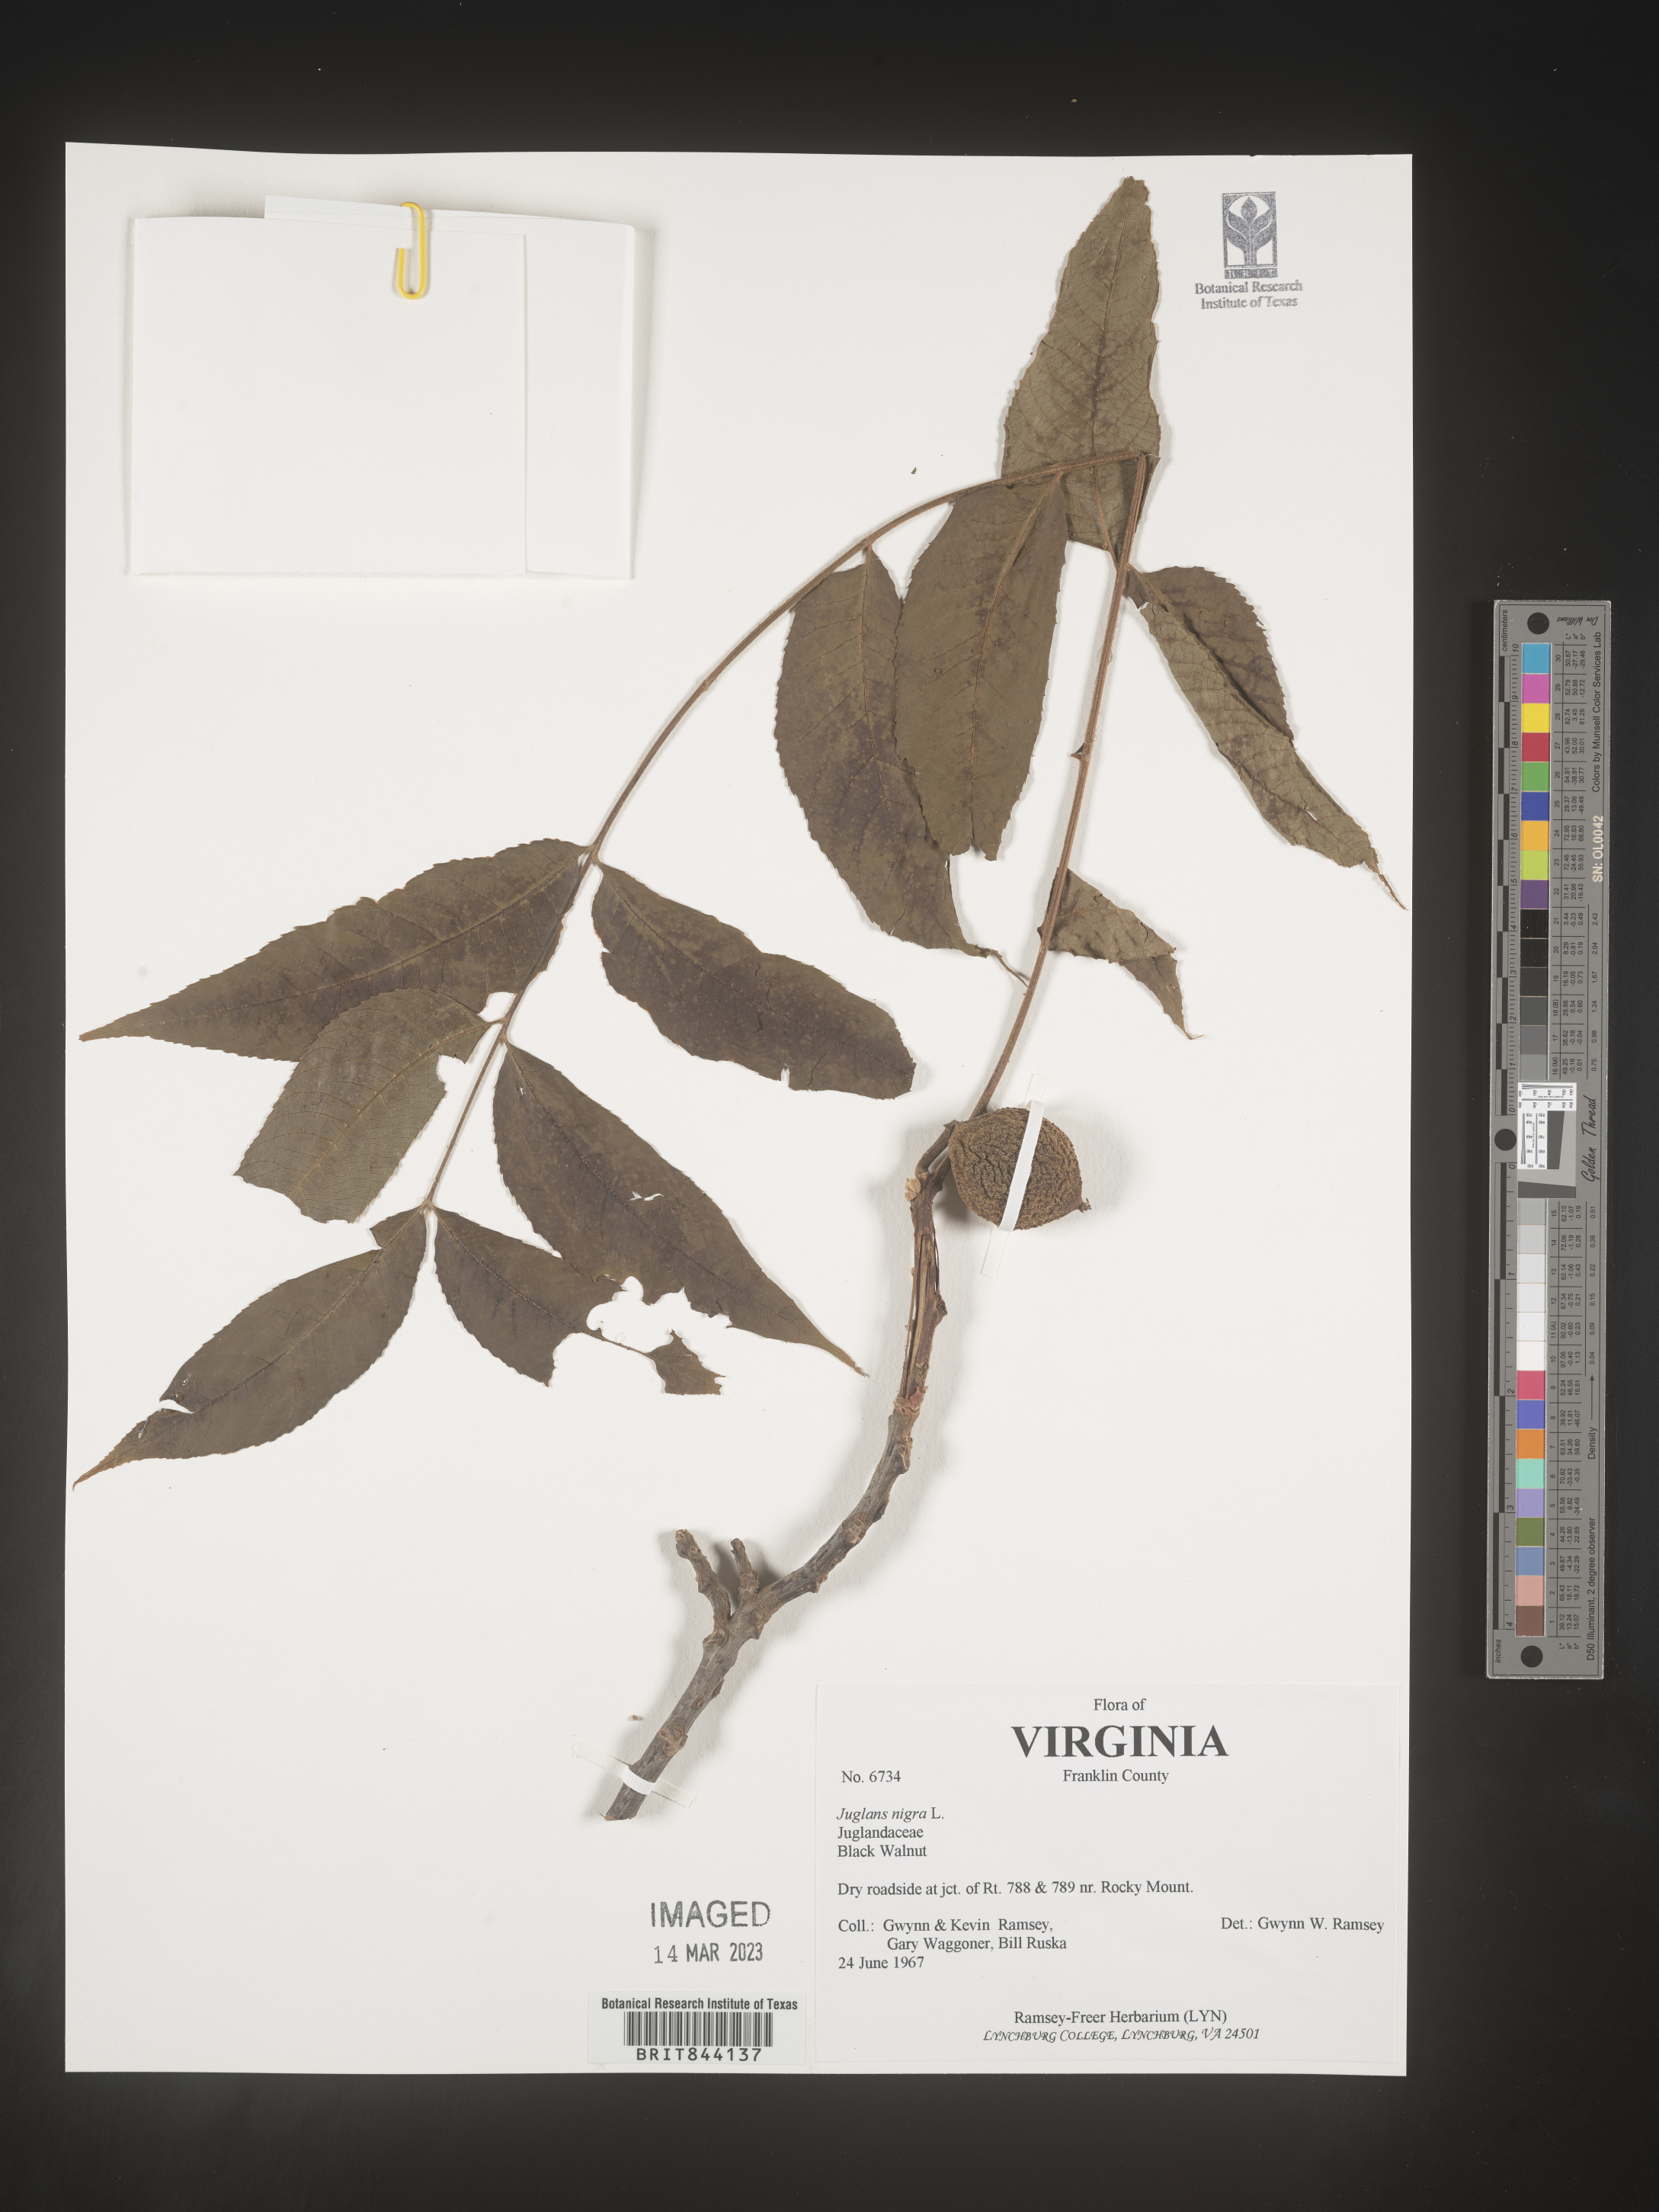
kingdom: Plantae
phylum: Tracheophyta
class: Magnoliopsida
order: Fagales
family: Juglandaceae
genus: Juglans
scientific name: Juglans nigra
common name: Black walnut
